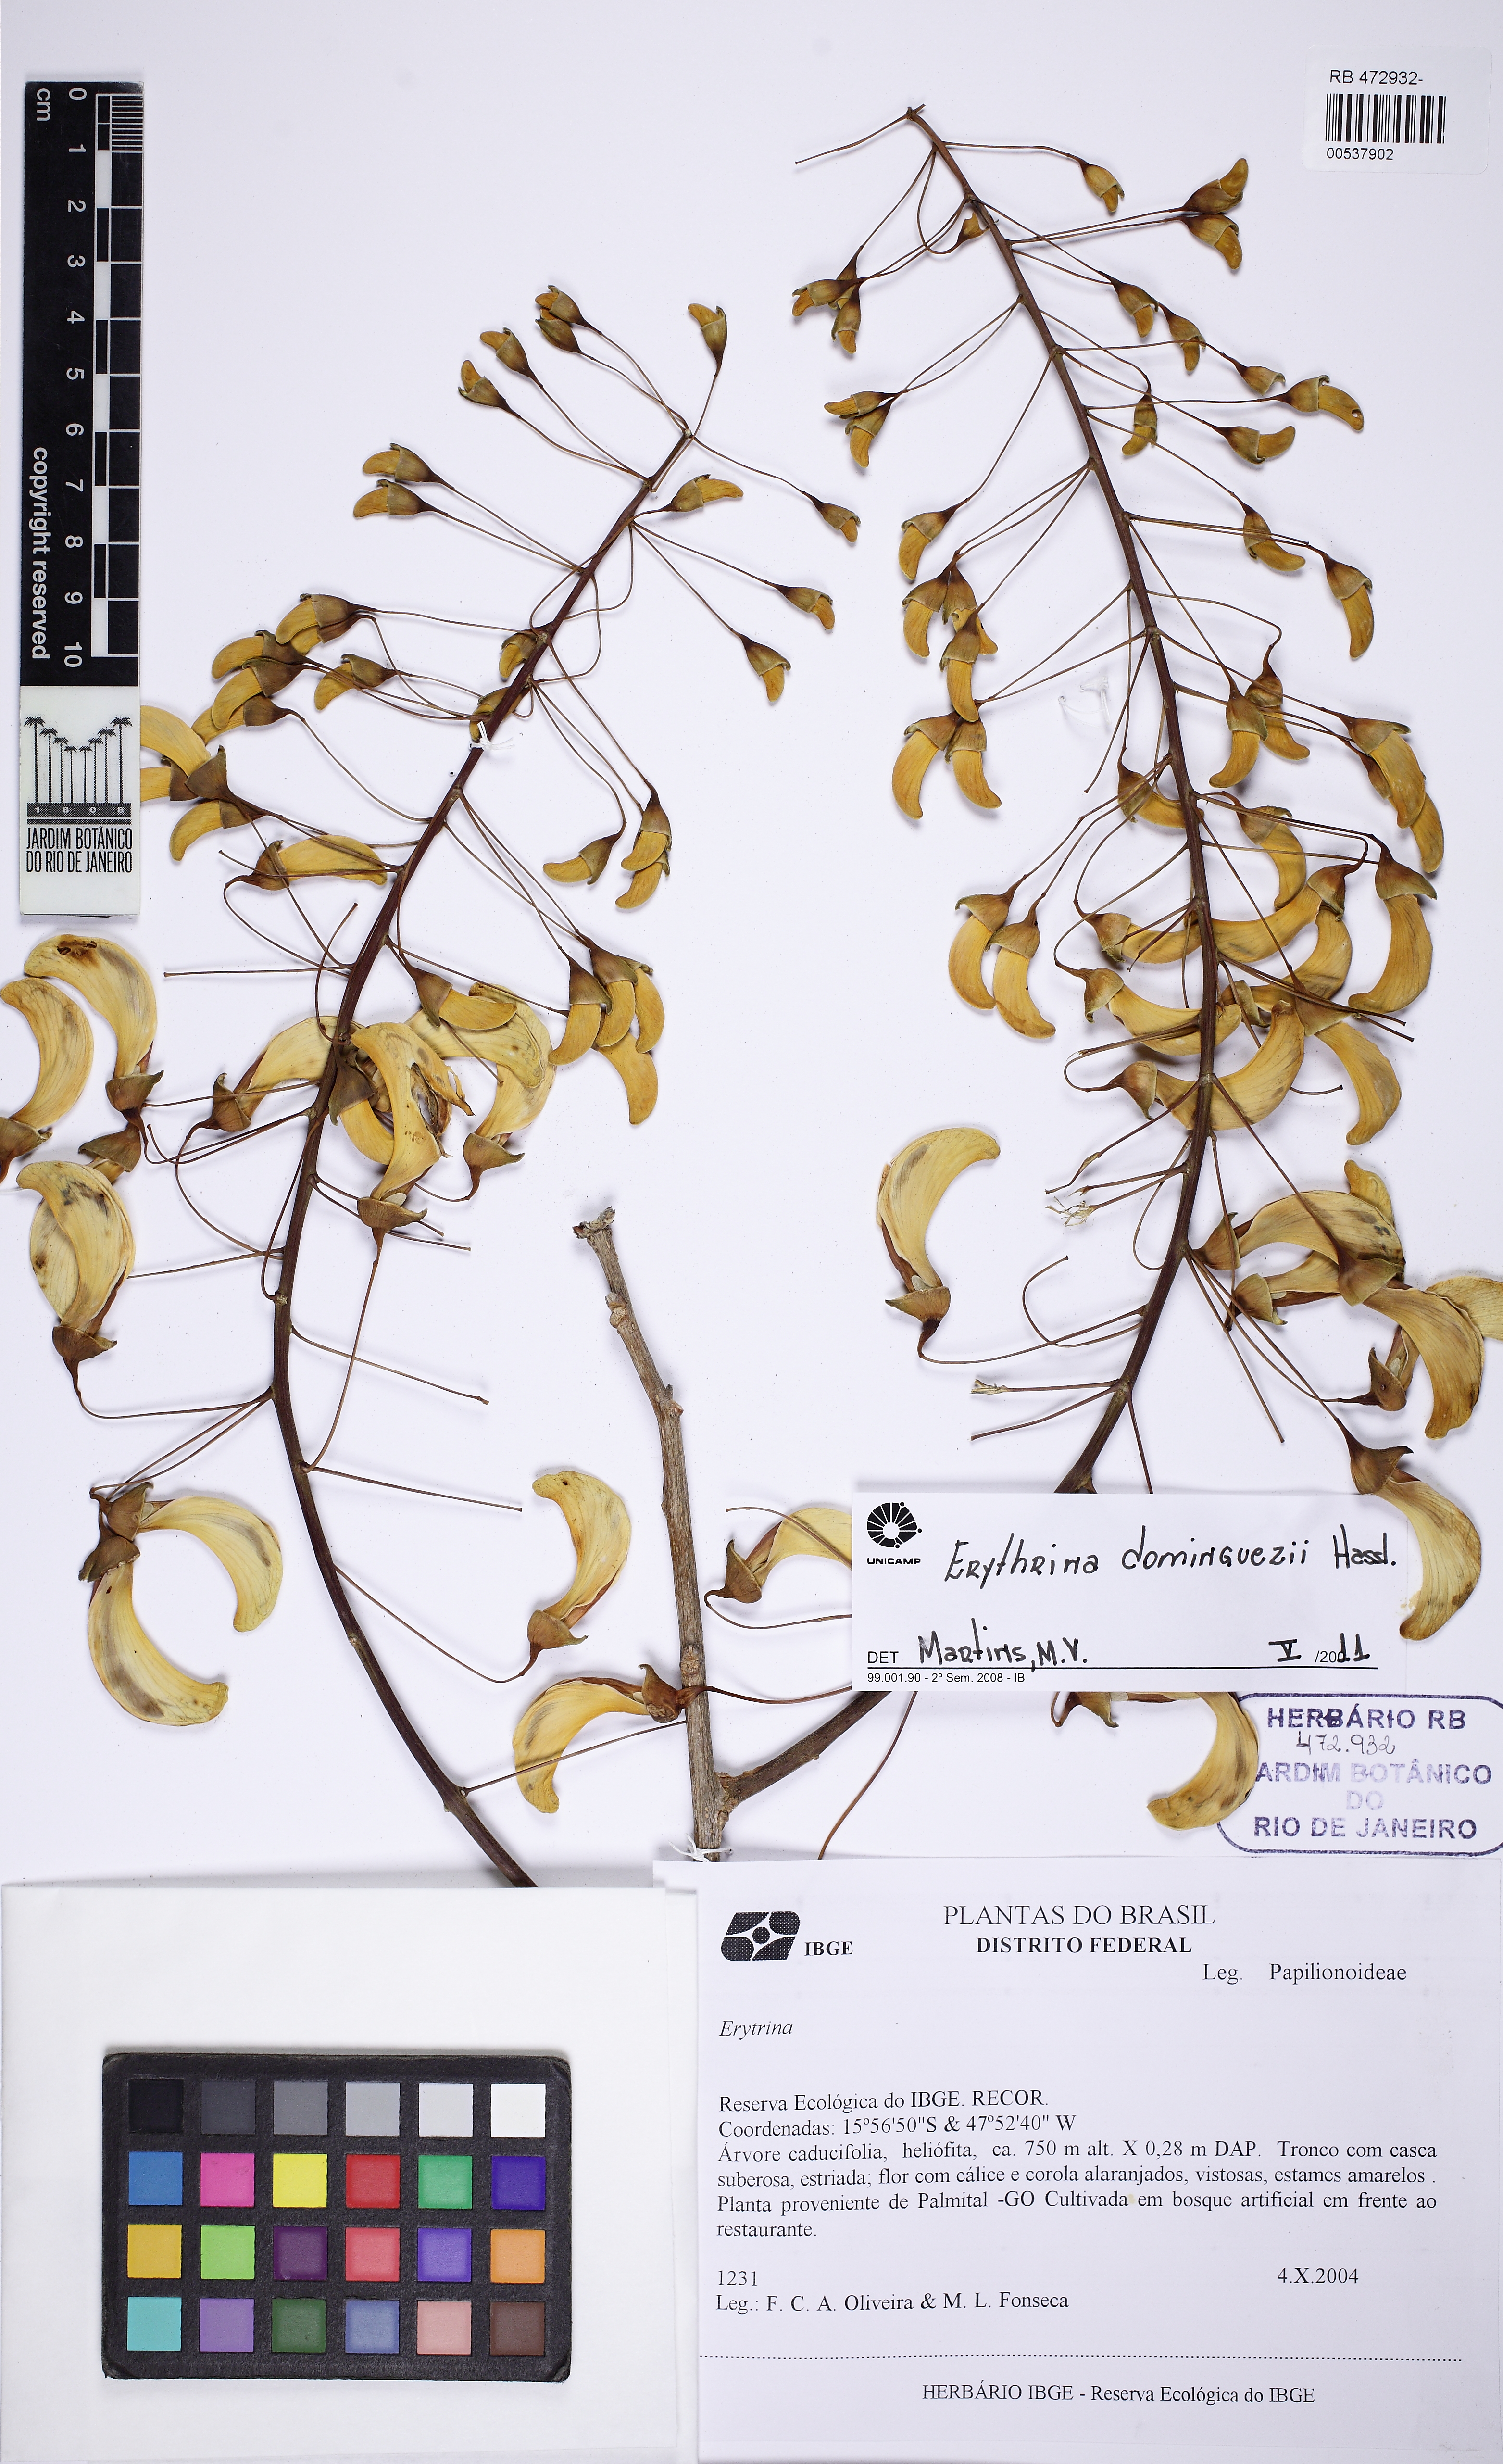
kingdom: Plantae
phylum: Tracheophyta
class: Magnoliopsida
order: Fabales
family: Fabaceae
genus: Erythrina
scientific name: Erythrina mulungu
